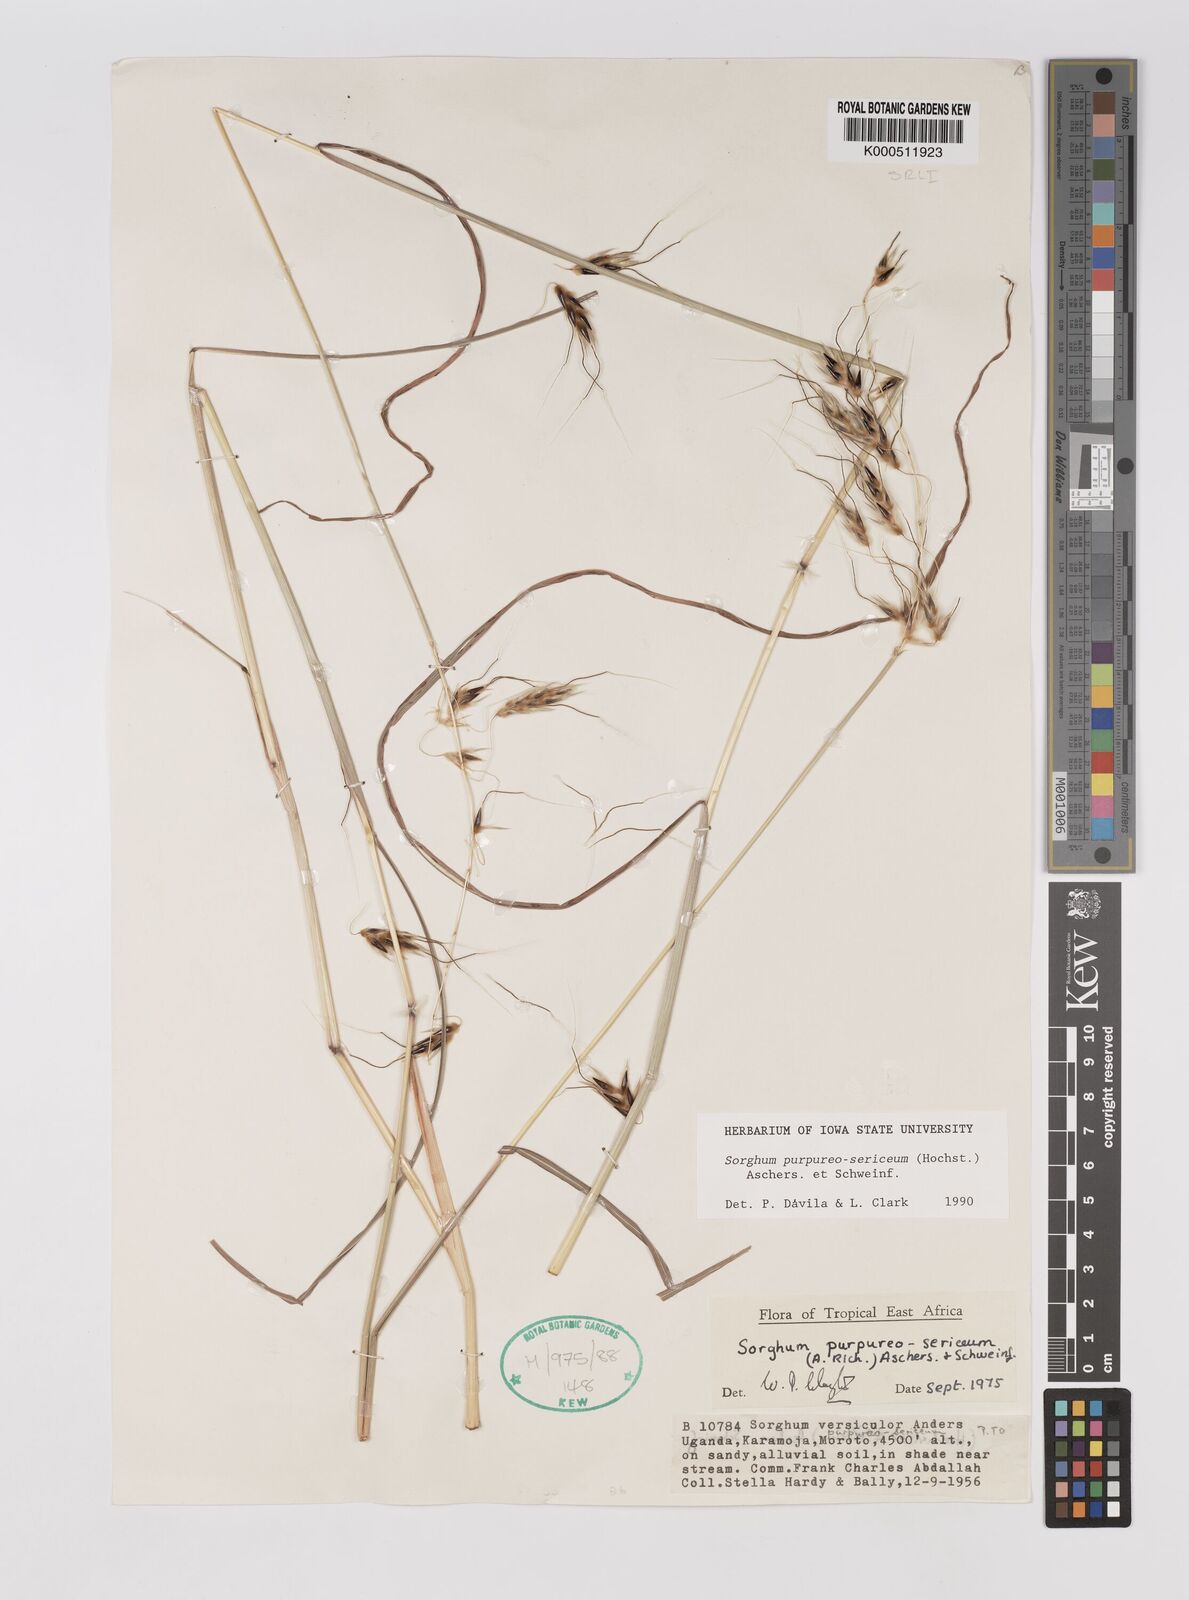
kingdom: Plantae
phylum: Tracheophyta
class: Liliopsida
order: Poales
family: Poaceae
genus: Sarga
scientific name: Sarga purpureosericea
